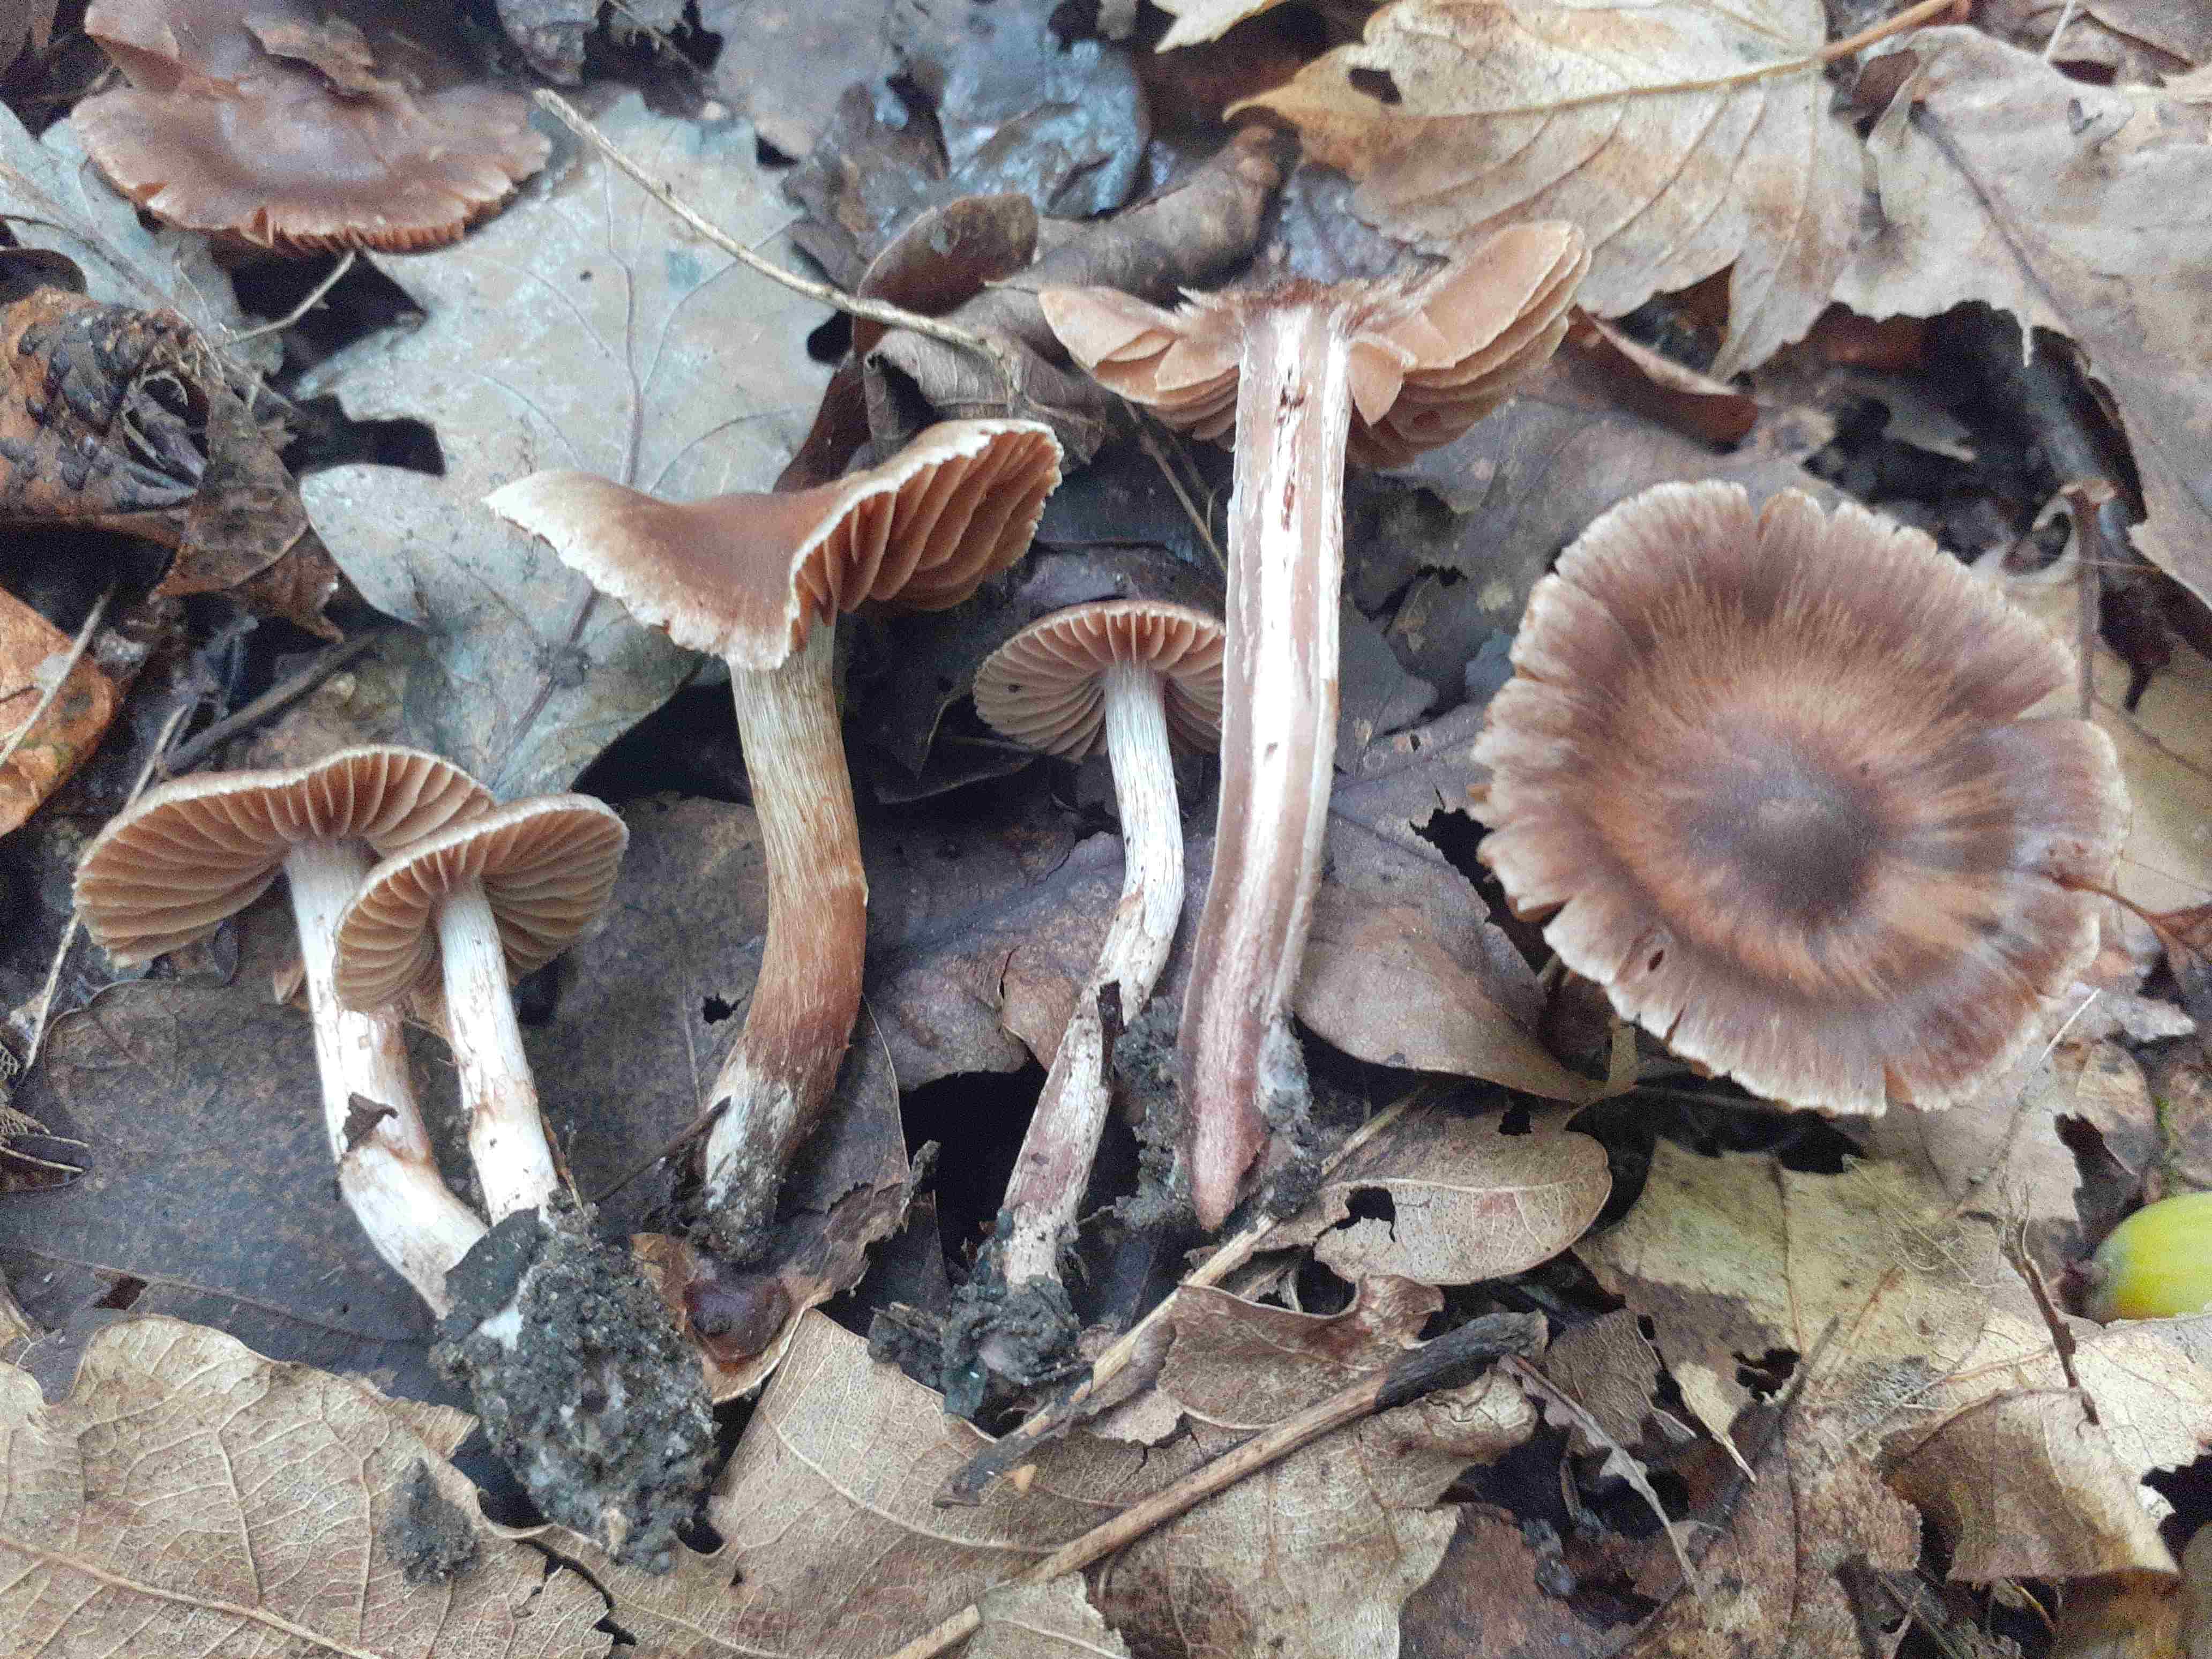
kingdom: Fungi
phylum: Basidiomycota
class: Agaricomycetes
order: Agaricales
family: Cortinariaceae
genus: Cortinarius
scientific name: Cortinarius
